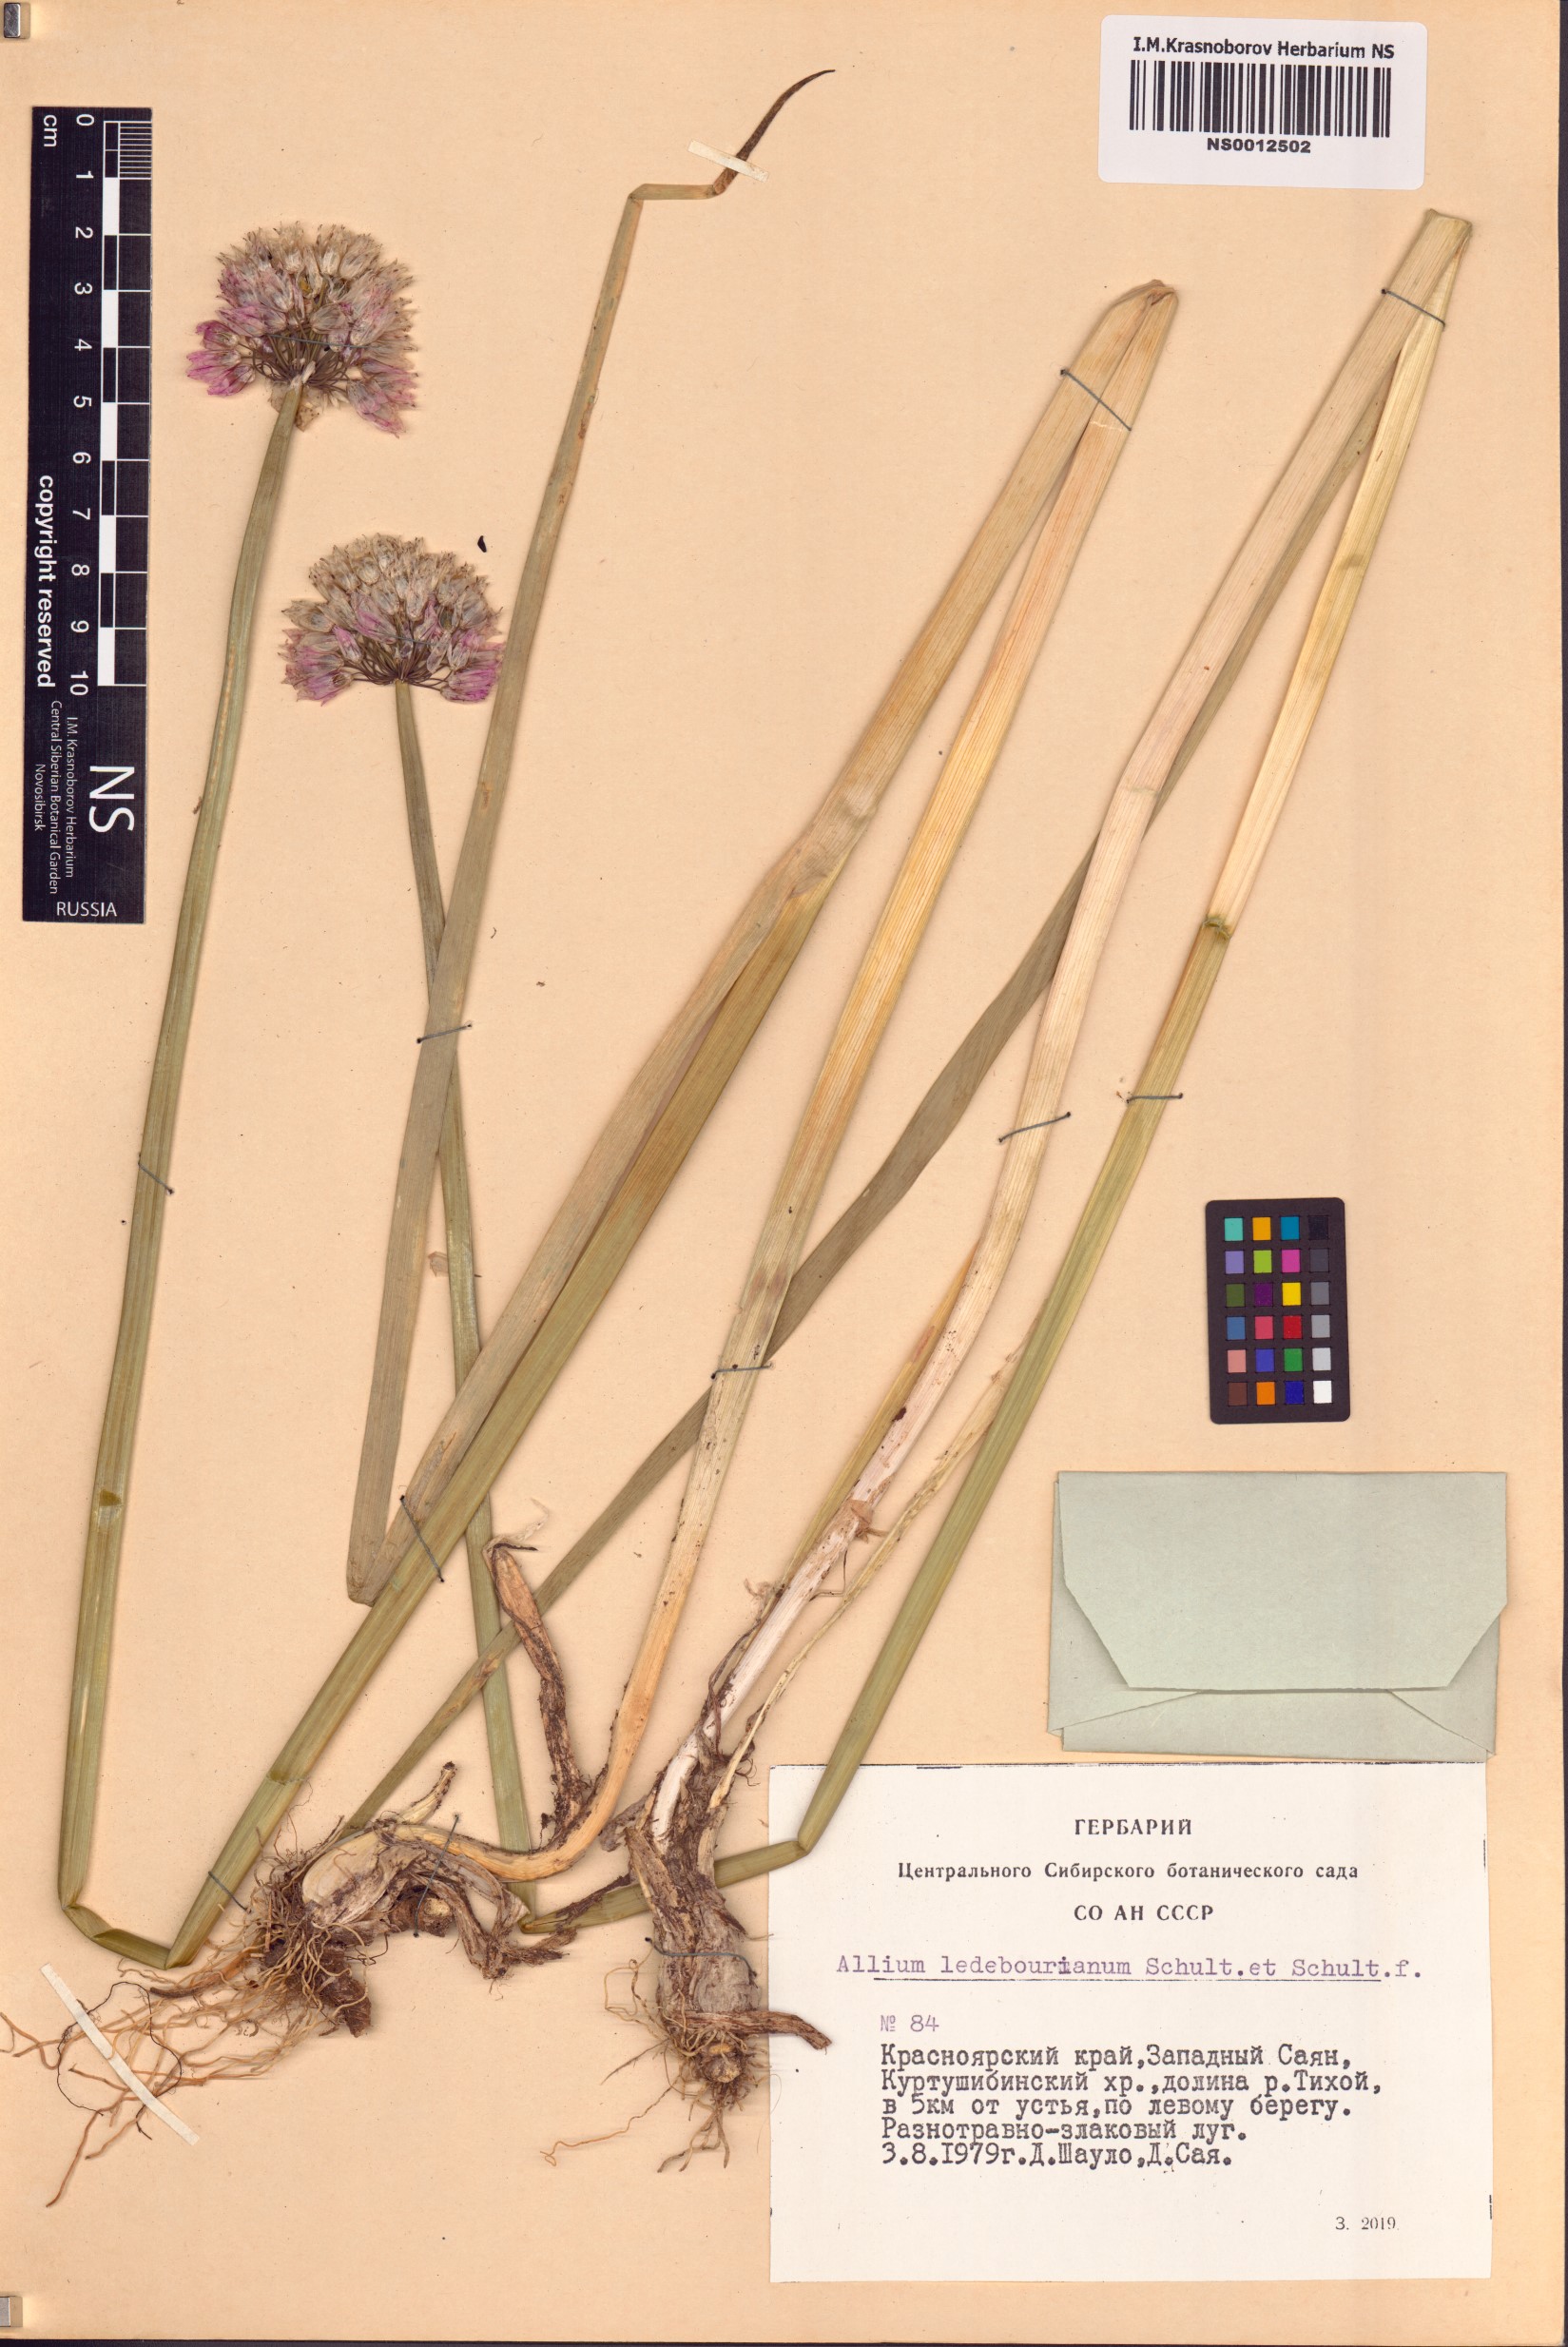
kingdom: Plantae
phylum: Tracheophyta
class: Liliopsida
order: Asparagales
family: Amaryllidaceae
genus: Allium
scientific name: Allium ledebourianum
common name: Ledebour chive
